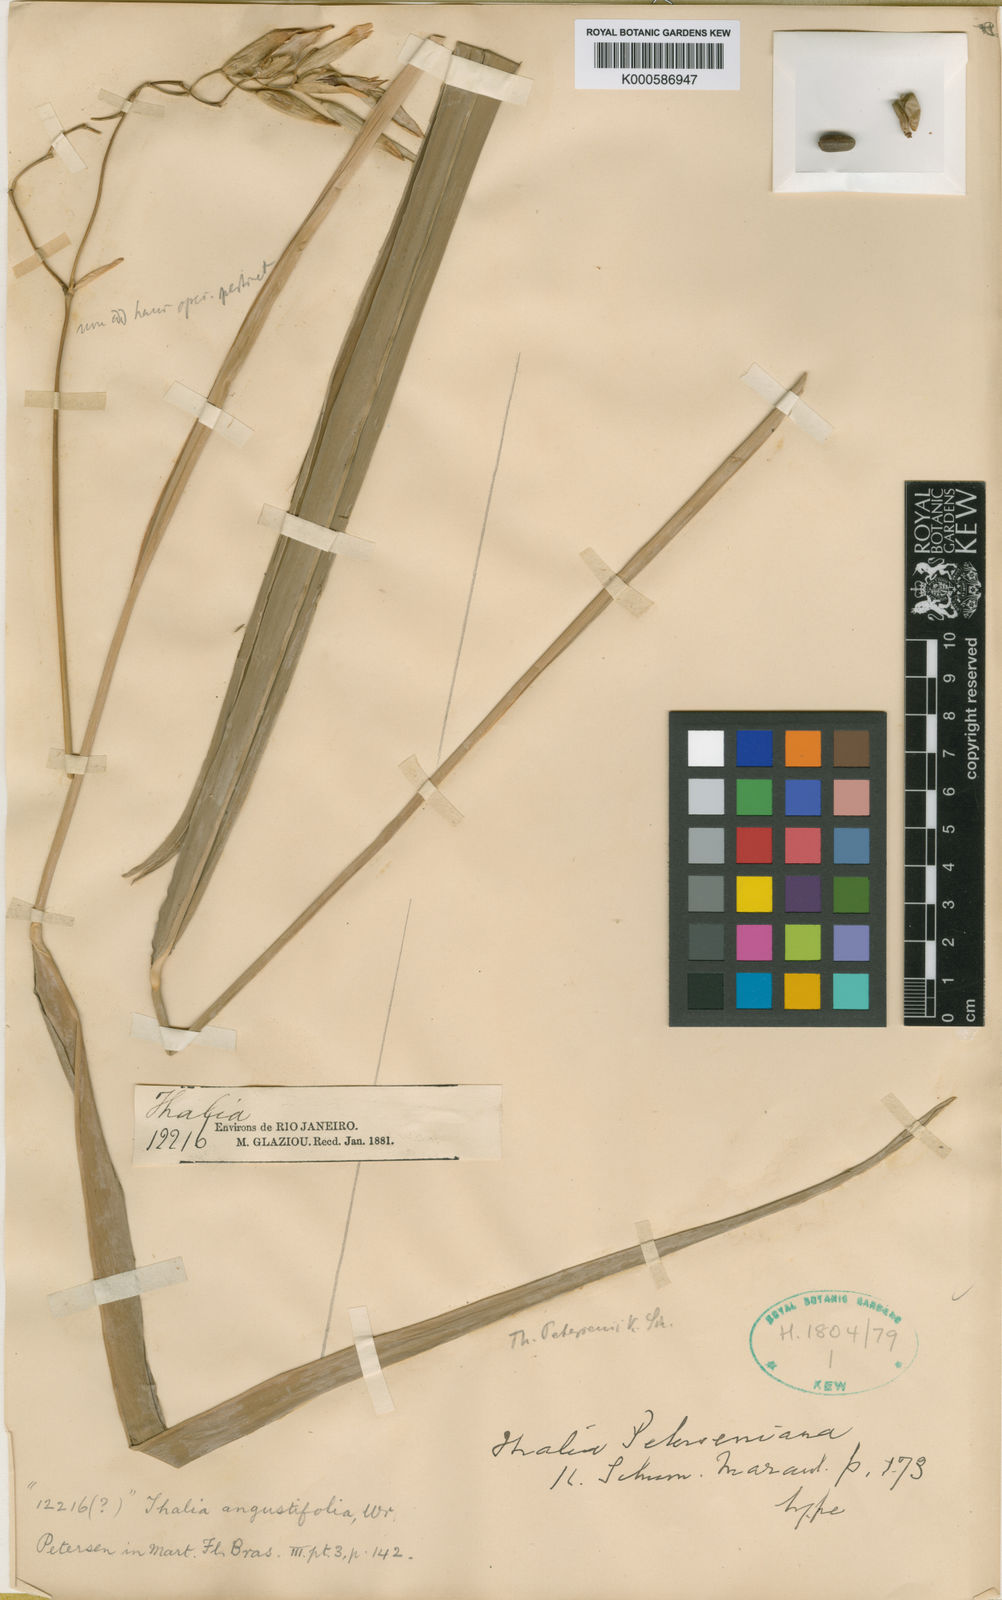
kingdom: Plantae
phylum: Tracheophyta
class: Liliopsida
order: Zingiberales
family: Marantaceae
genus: Thalia
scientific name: Thalia petersiana
